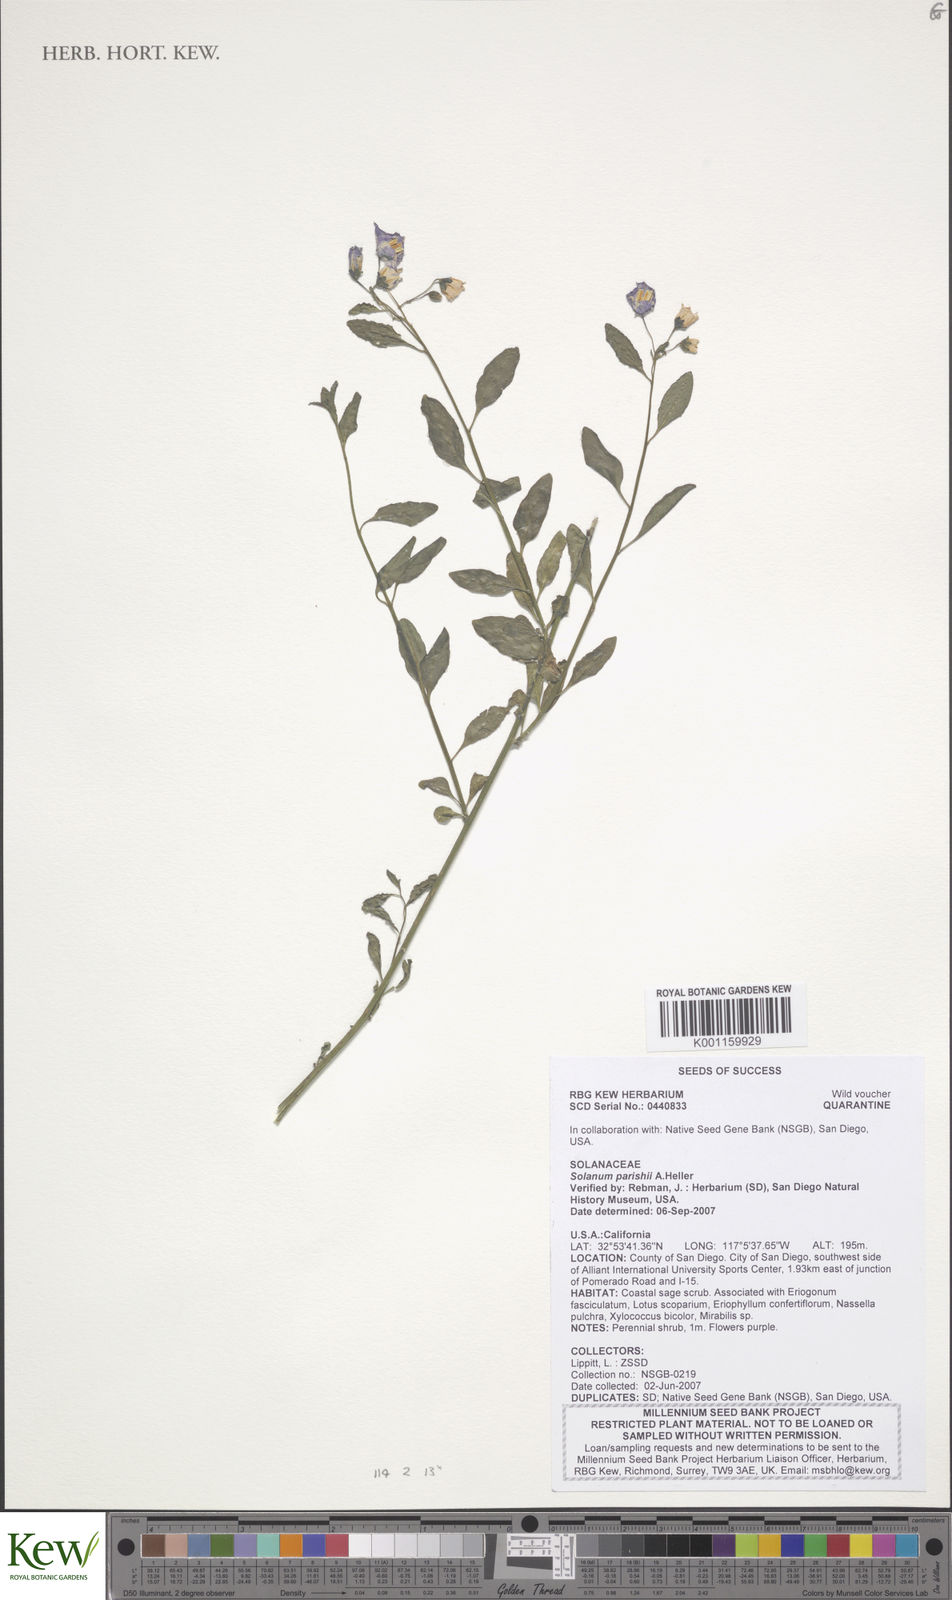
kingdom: Plantae
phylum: Tracheophyta
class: Magnoliopsida
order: Solanales
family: Solanaceae
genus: Solanum
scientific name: Solanum umbelliferum
